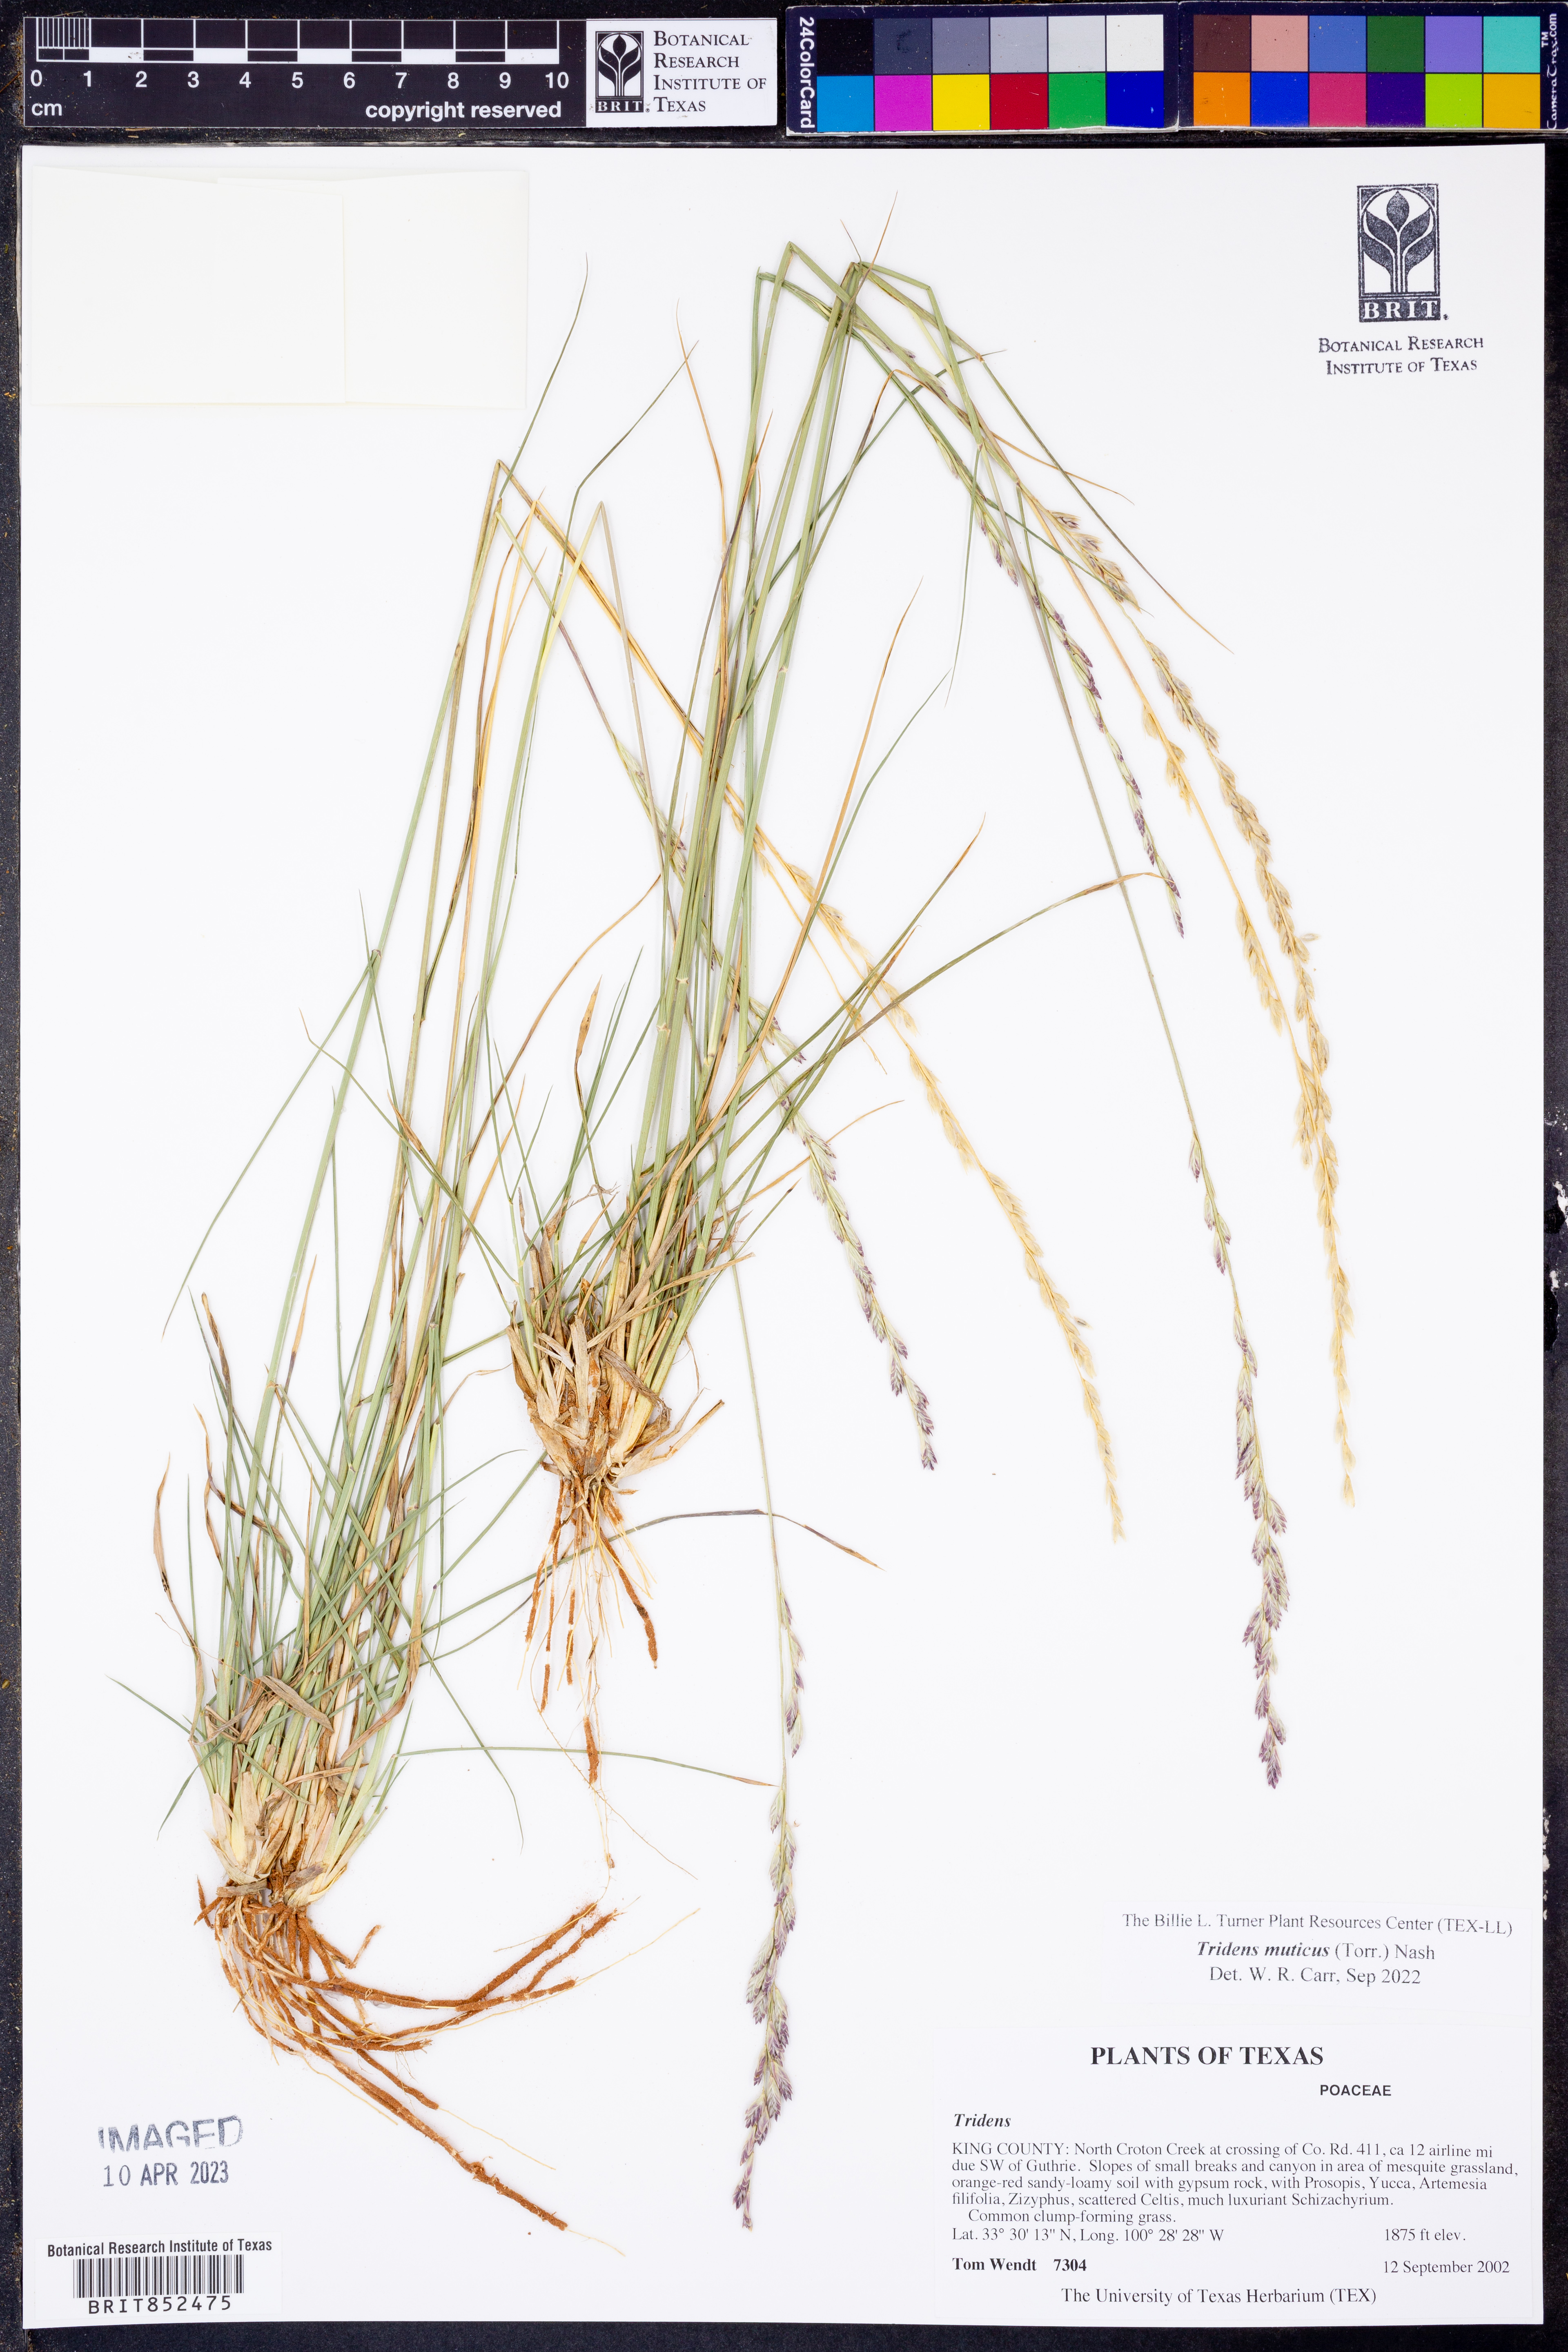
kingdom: Plantae
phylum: Tracheophyta
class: Liliopsida
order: Poales
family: Poaceae
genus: Tridentopsis
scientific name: Tridentopsis mutica
